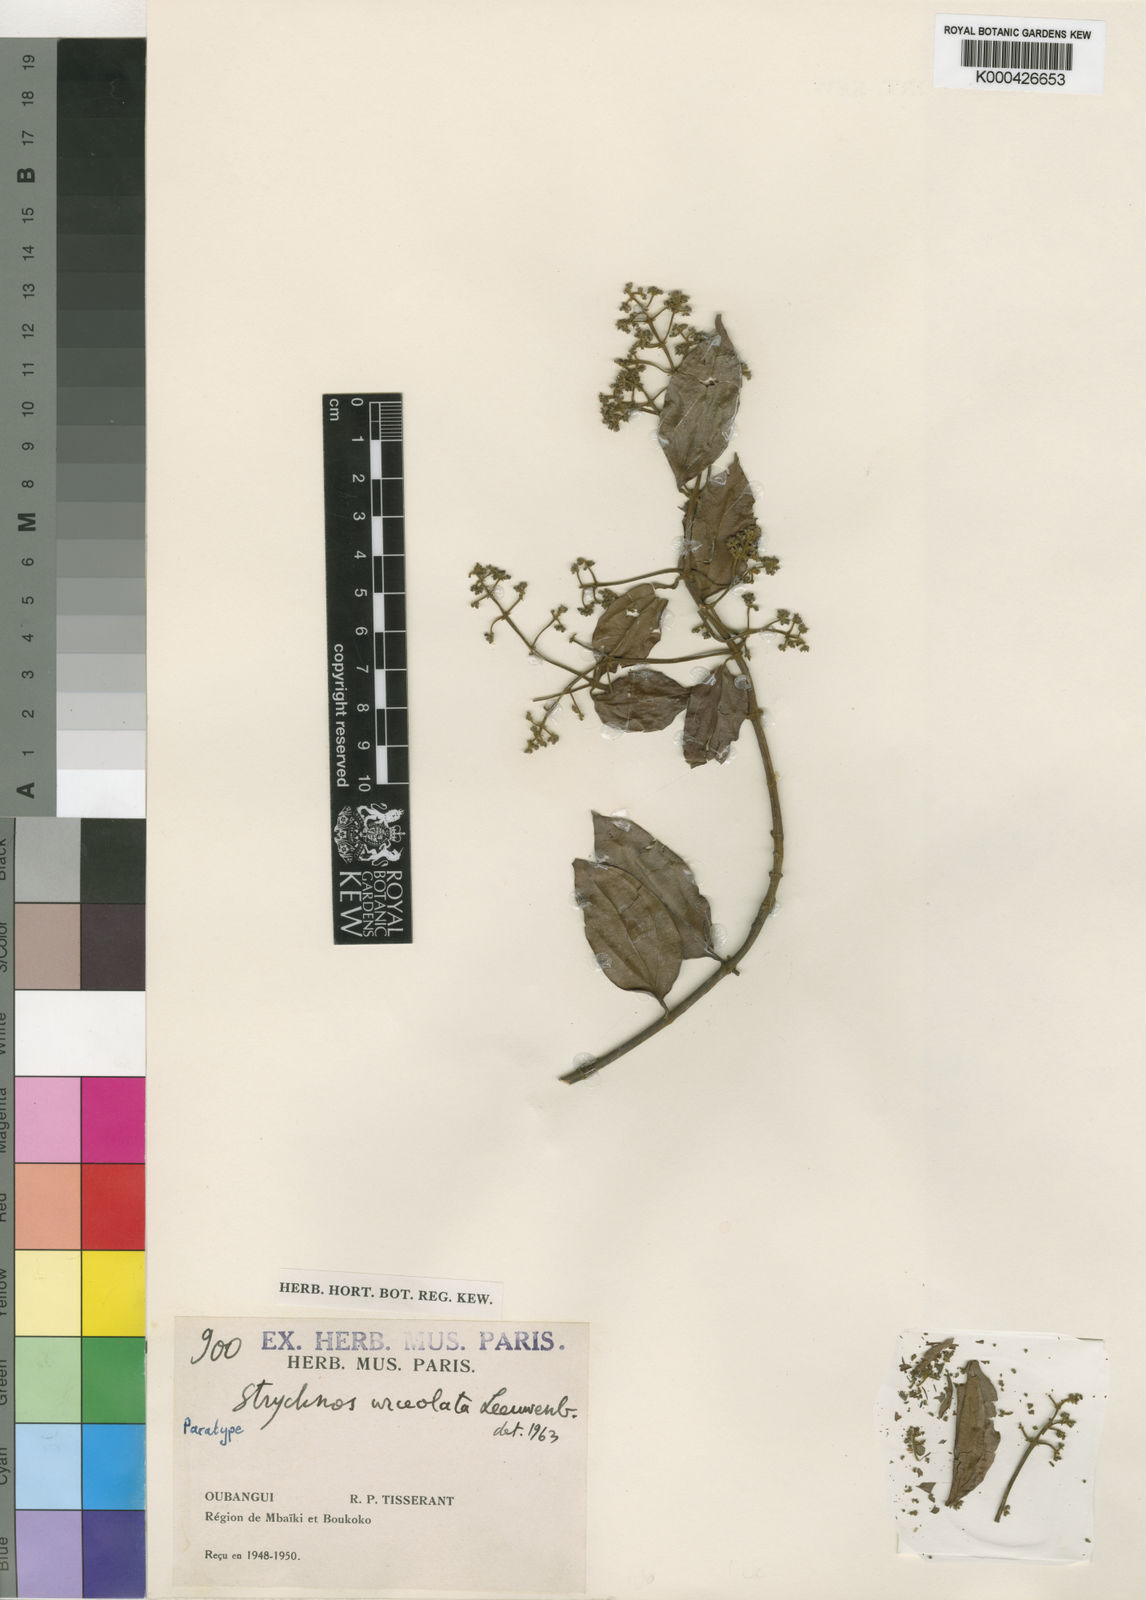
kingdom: Plantae
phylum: Tracheophyta
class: Magnoliopsida
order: Gentianales
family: Loganiaceae
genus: Strychnos
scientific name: Strychnos urceolata
